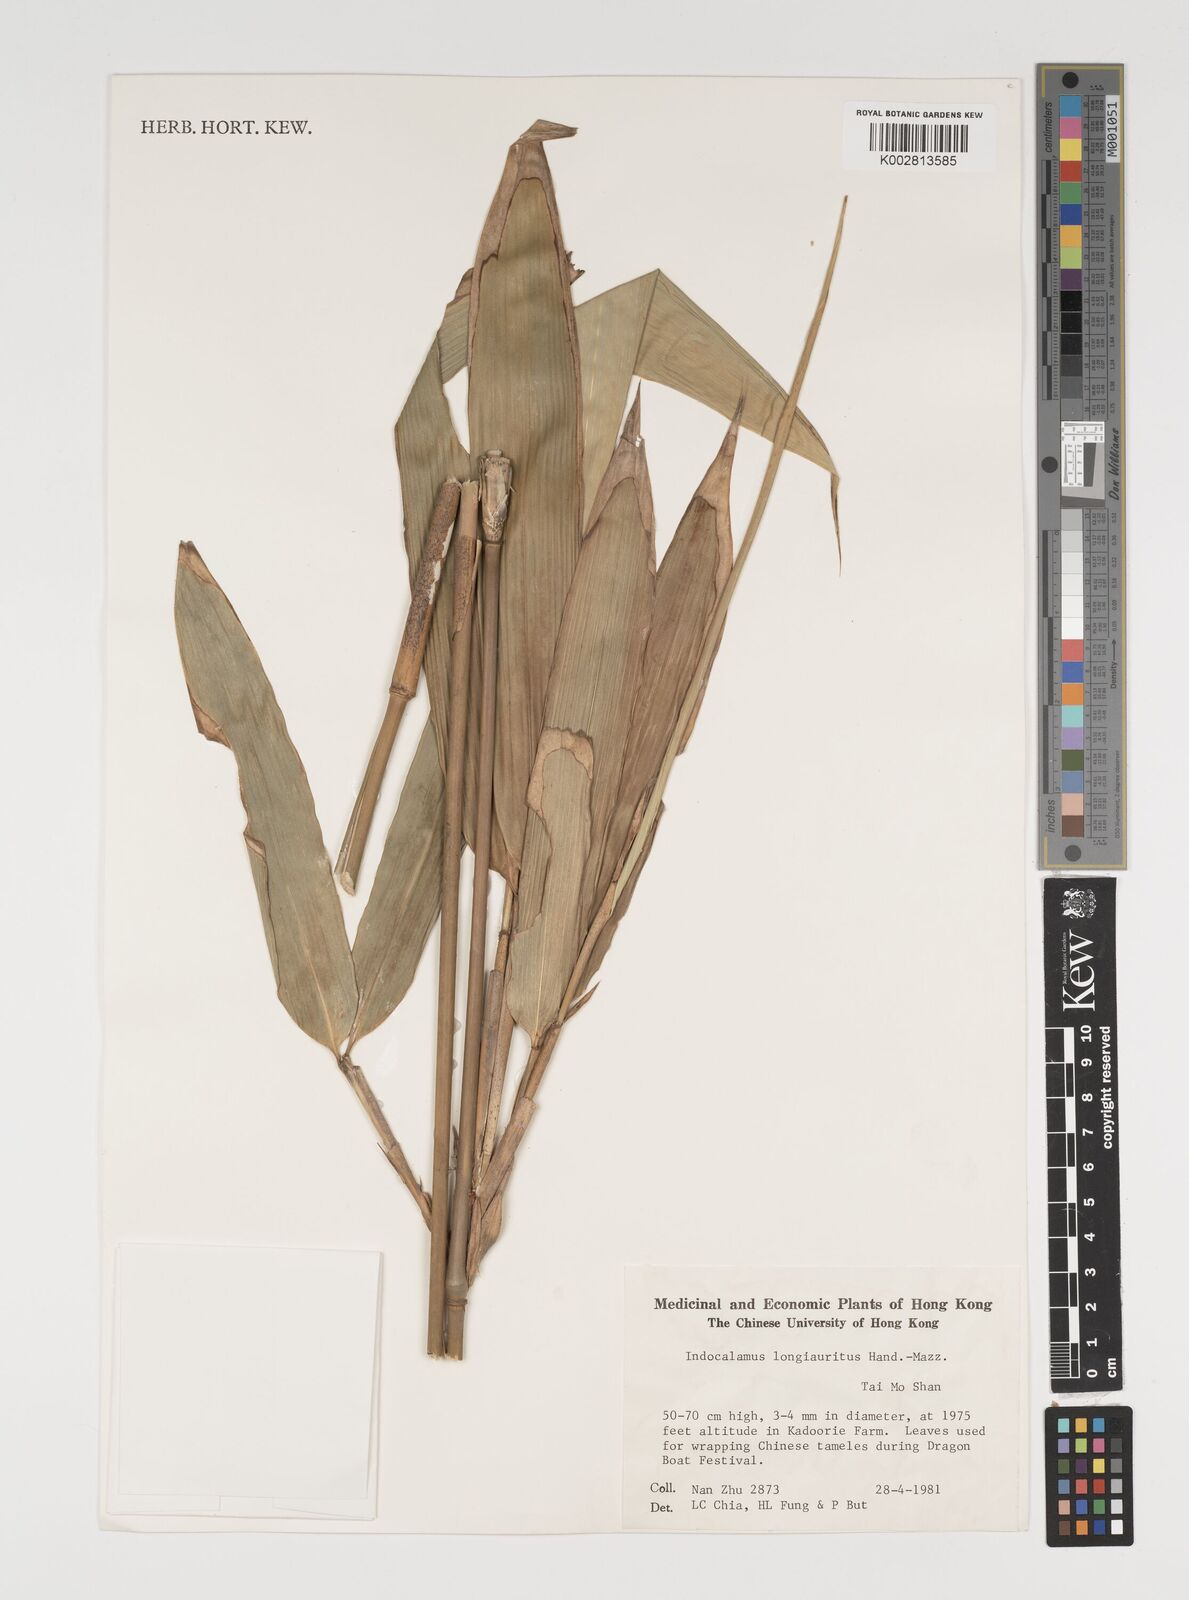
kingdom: Plantae
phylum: Tracheophyta
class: Liliopsida
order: Poales
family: Poaceae
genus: Indocalamus
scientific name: Indocalamus longiauritus
